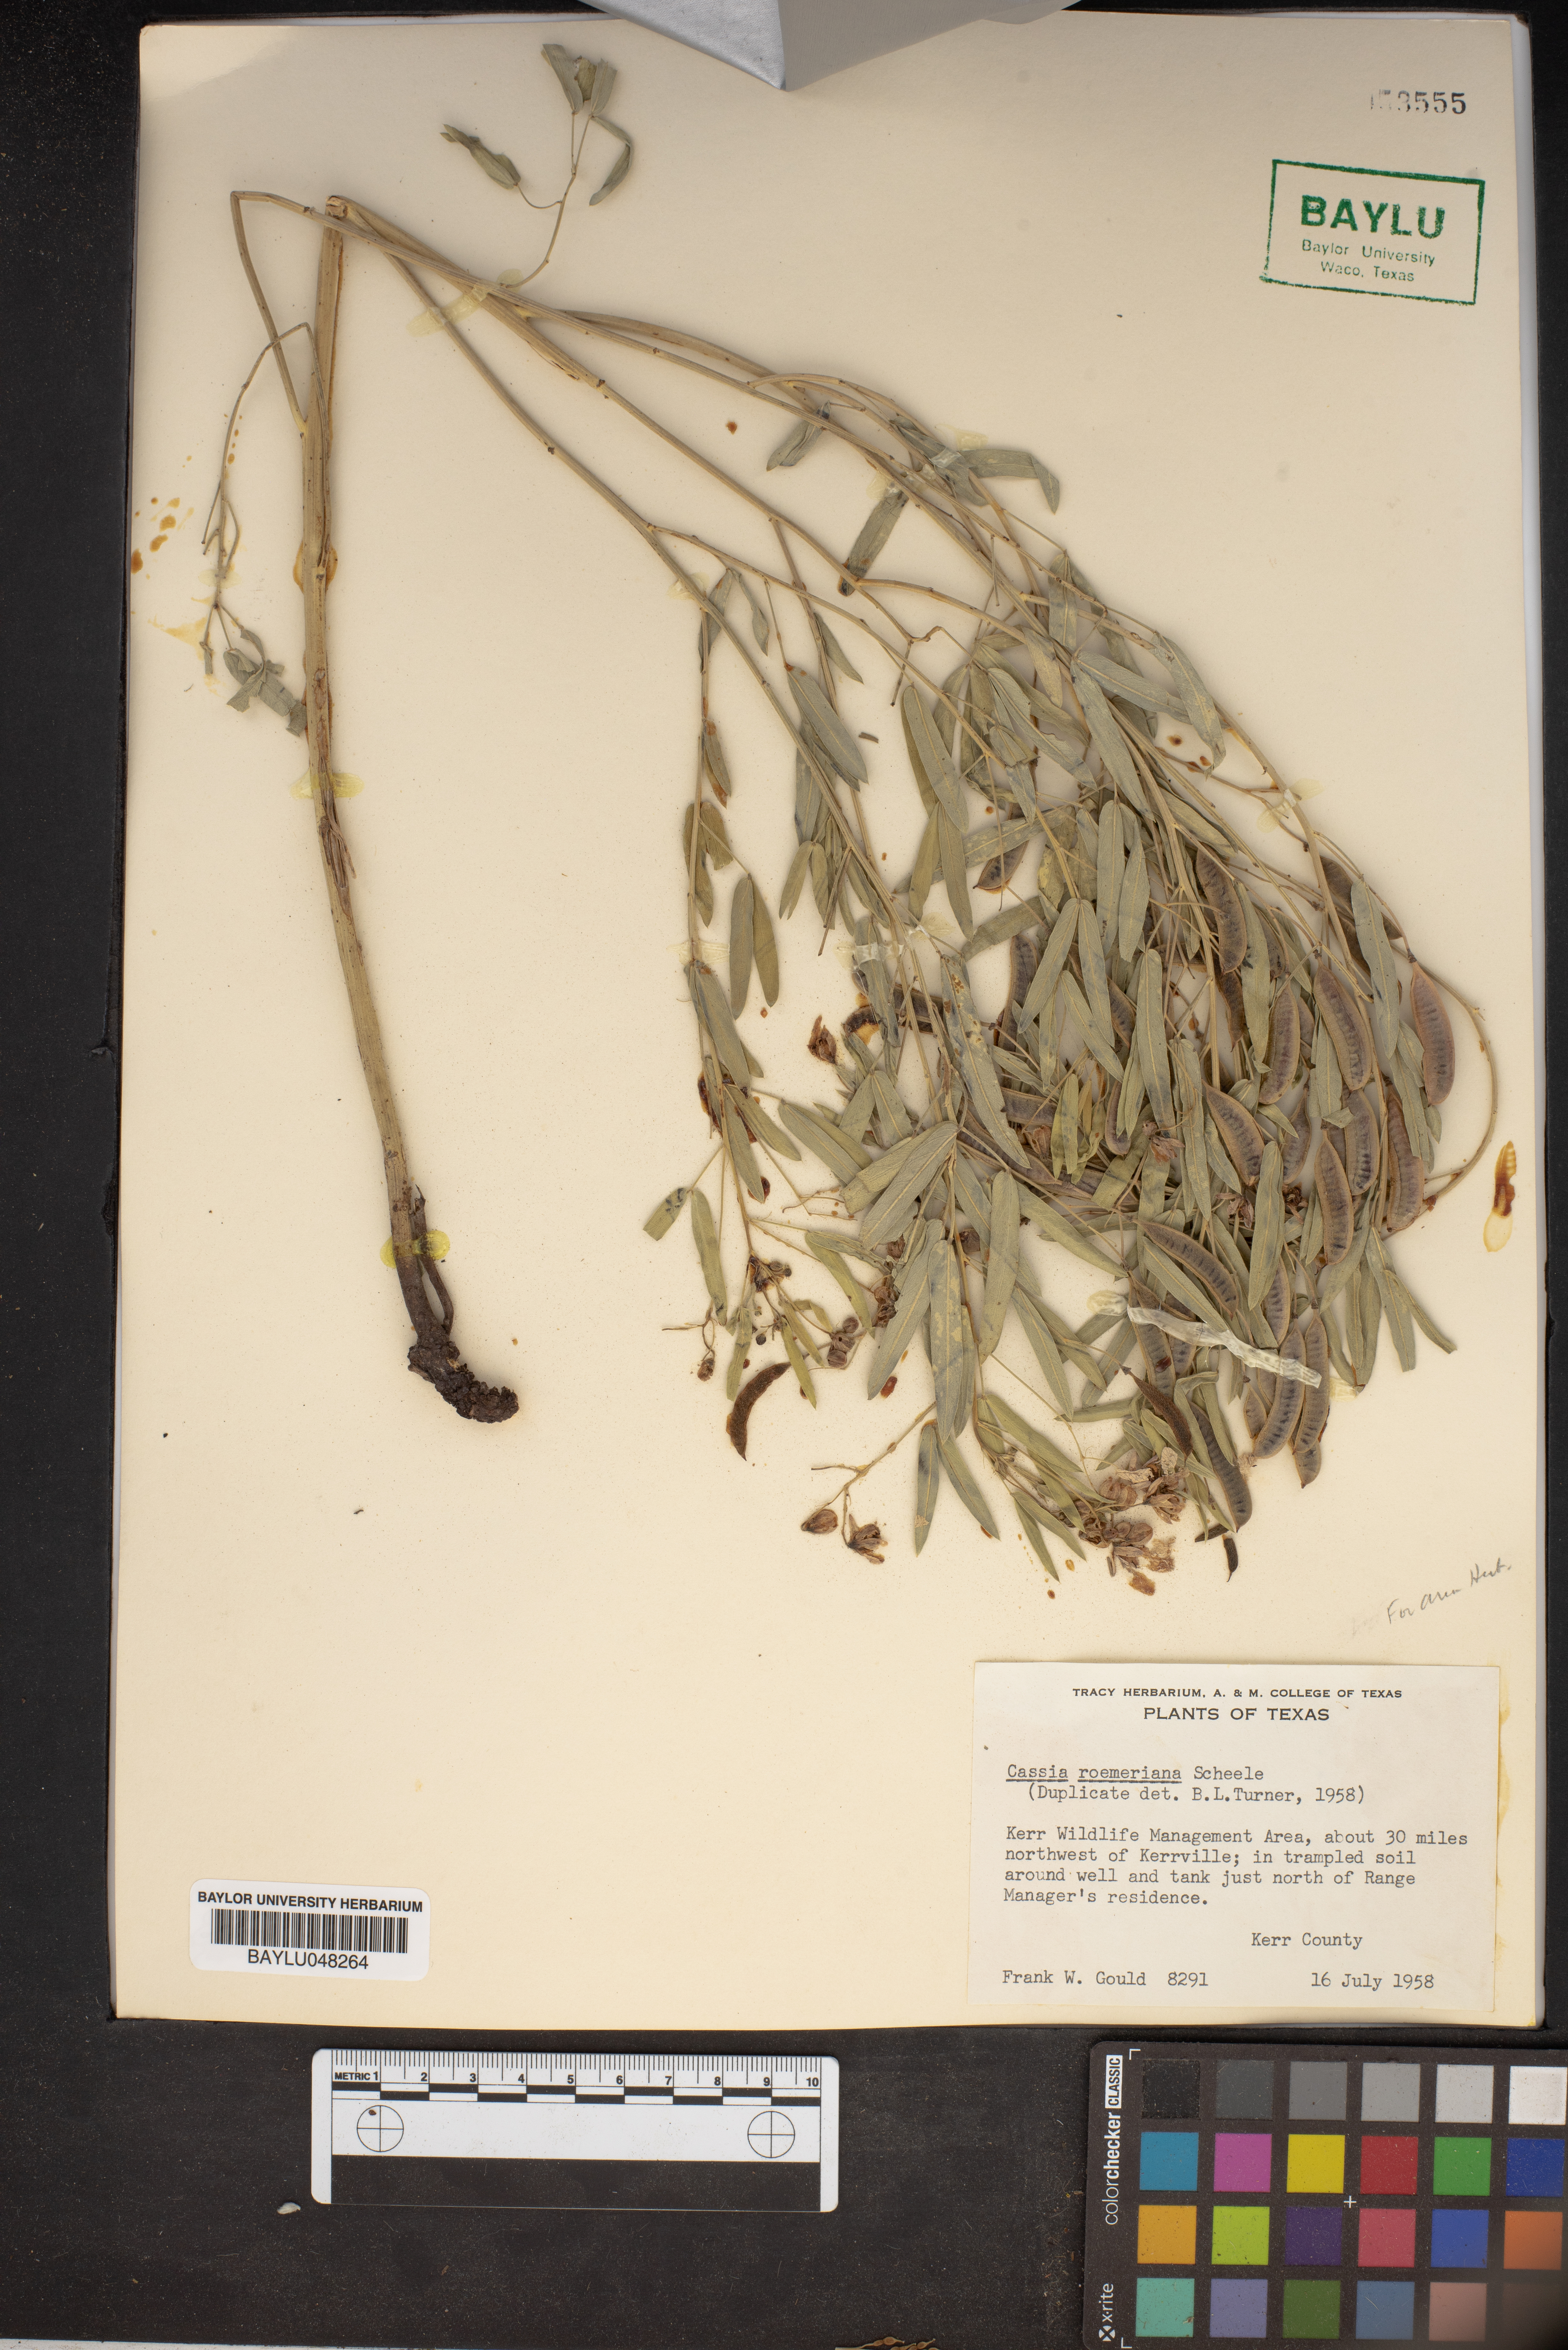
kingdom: Plantae
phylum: Tracheophyta
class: Magnoliopsida
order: Fabales
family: Fabaceae
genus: Senna
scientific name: Senna roemeriana
